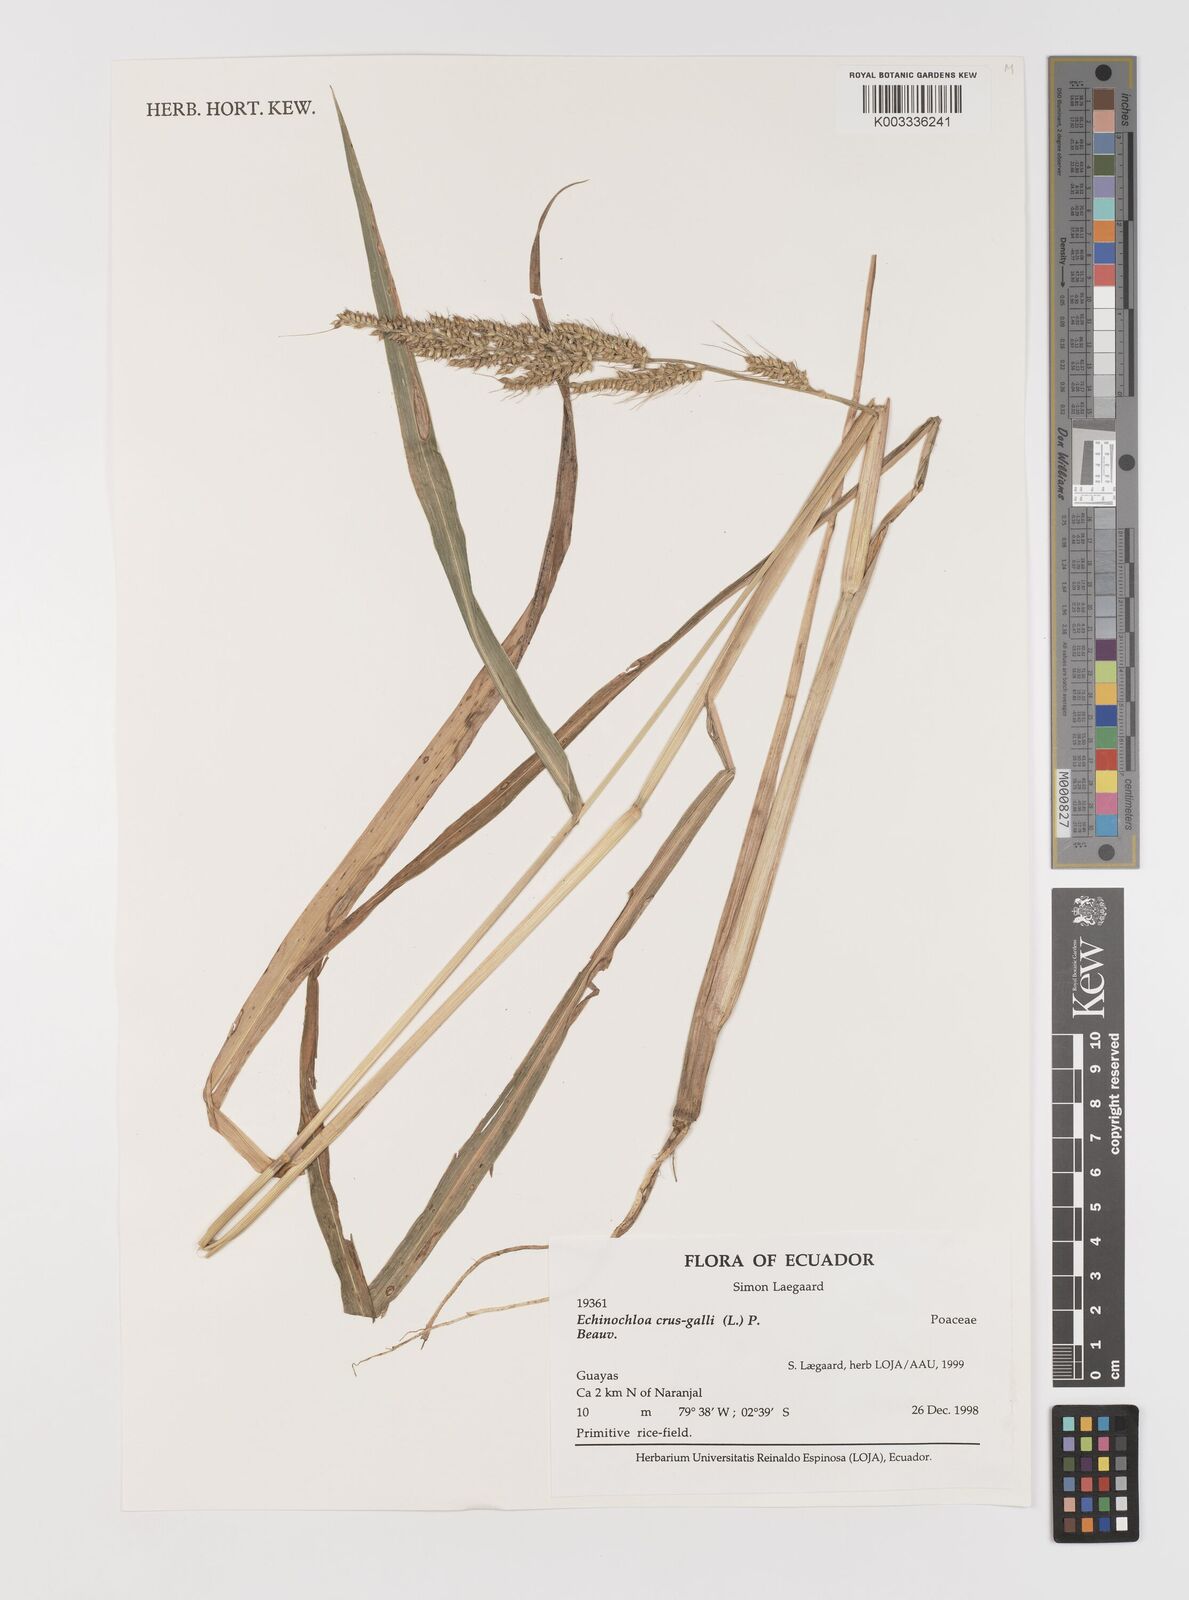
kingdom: Plantae
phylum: Tracheophyta
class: Liliopsida
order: Poales
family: Poaceae
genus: Echinochloa
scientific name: Echinochloa crus-galli
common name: Cockspur
